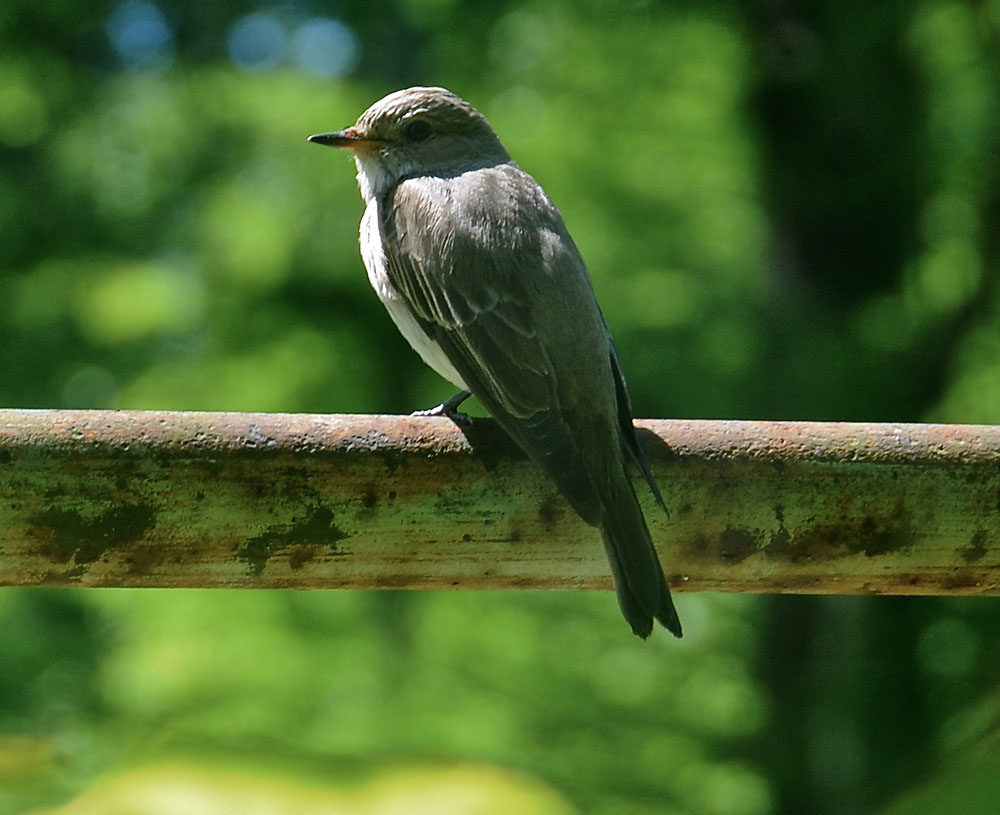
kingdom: Animalia
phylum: Chordata
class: Aves
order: Passeriformes
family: Muscicapidae
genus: Muscicapa
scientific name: Muscicapa striata
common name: Spotted flycatcher
